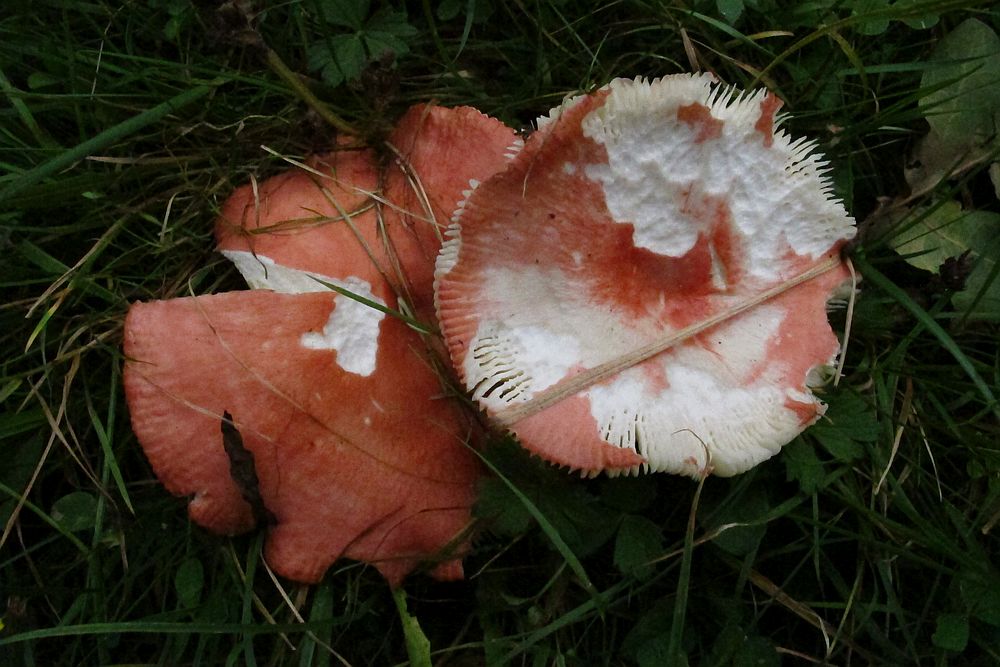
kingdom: Fungi
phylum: Basidiomycota
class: Agaricomycetes
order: Russulales
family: Russulaceae
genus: Russula
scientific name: Russula pseudointegra
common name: cinnoberrød skørhat
